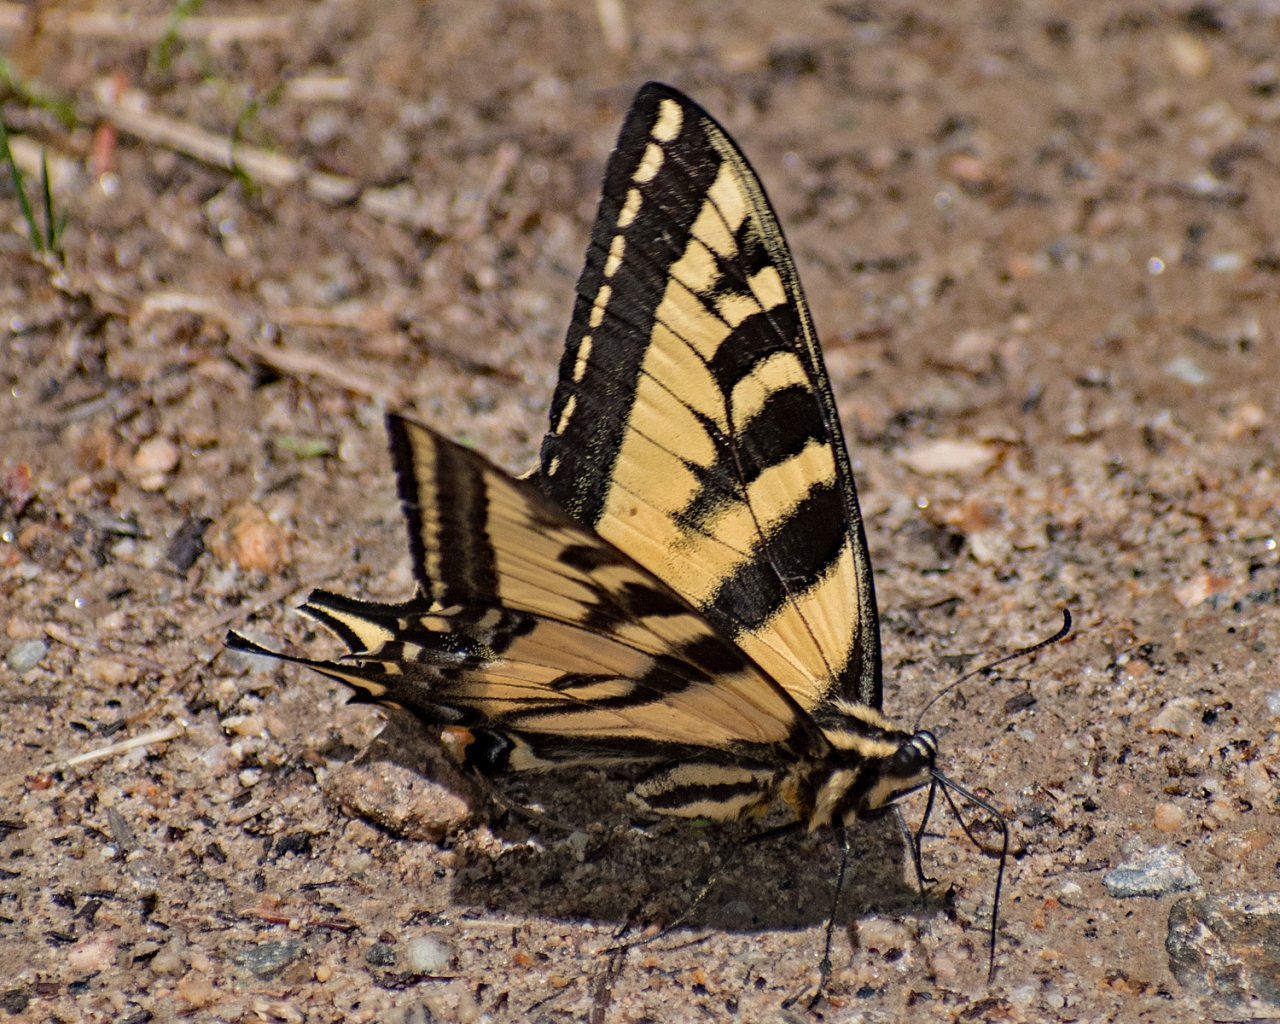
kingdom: Animalia
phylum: Arthropoda
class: Insecta
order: Lepidoptera
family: Papilionidae
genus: Pterourus
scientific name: Pterourus rutulus
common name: Western Tiger Swallowtail
